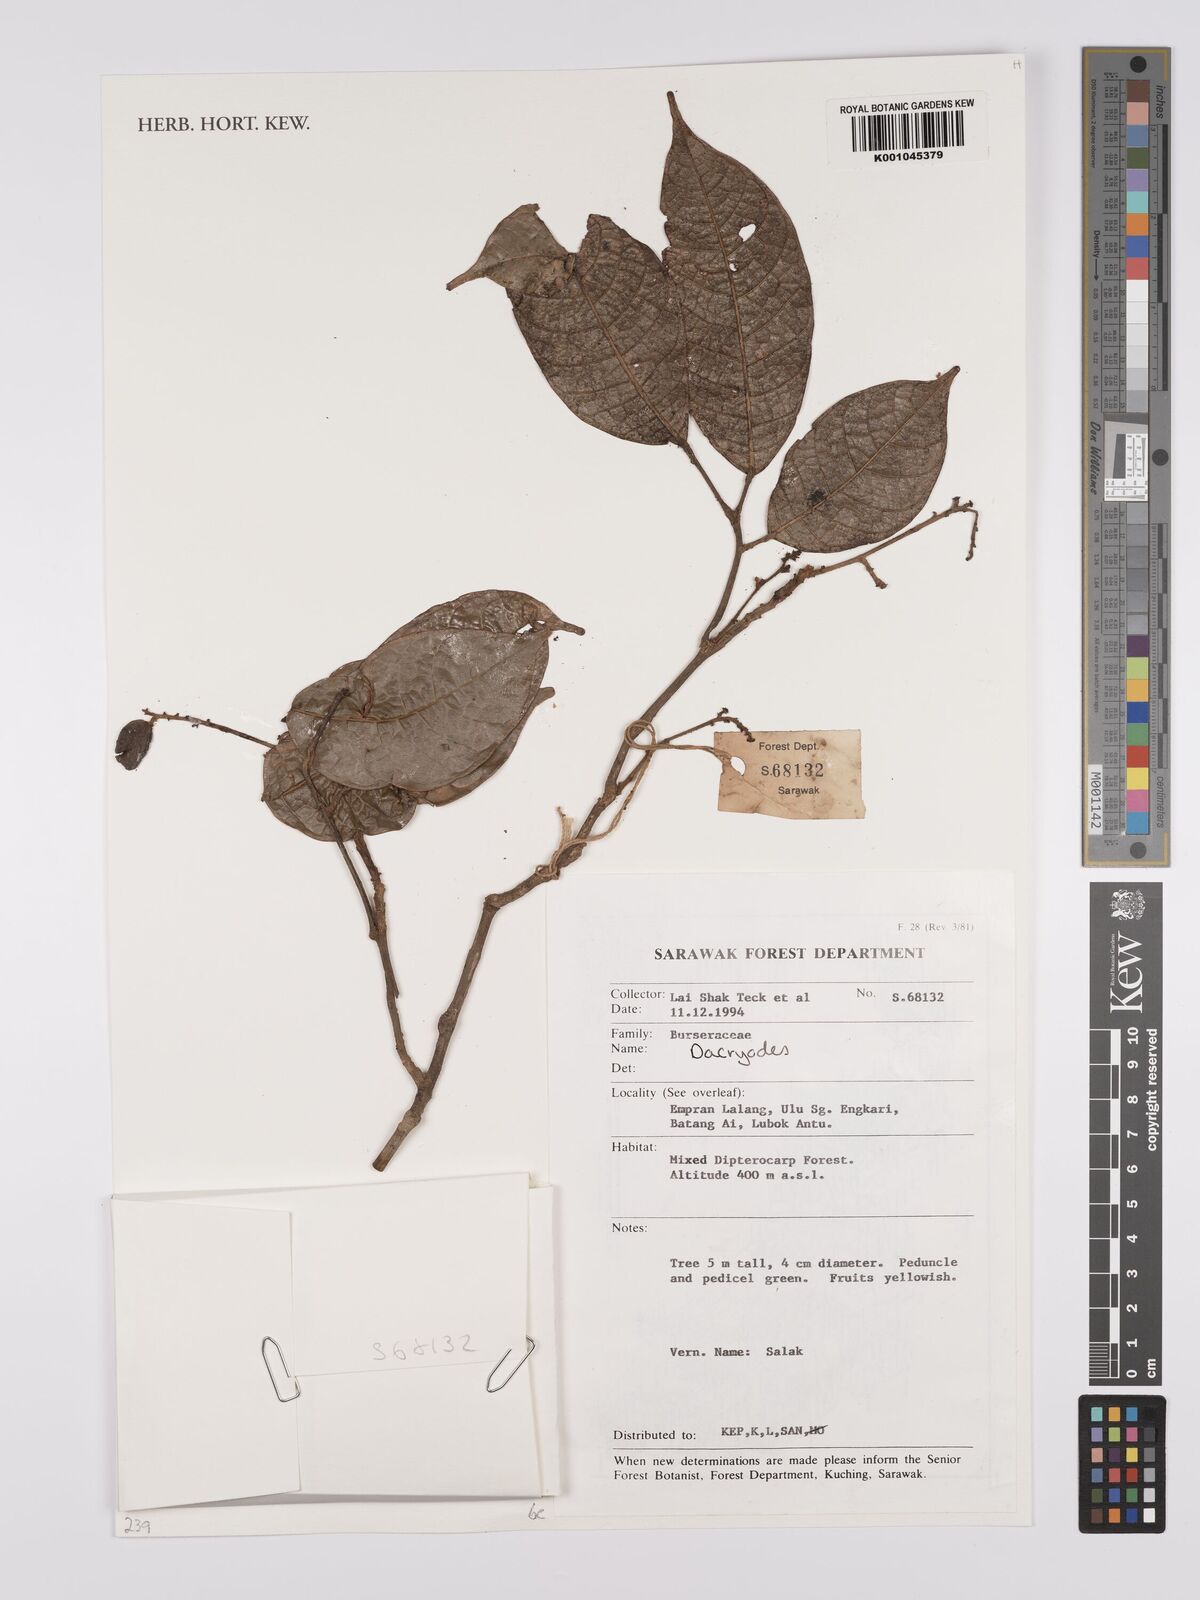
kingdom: Plantae
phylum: Tracheophyta
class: Magnoliopsida
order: Sapindales
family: Burseraceae
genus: Dacryodes
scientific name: Dacryodes
